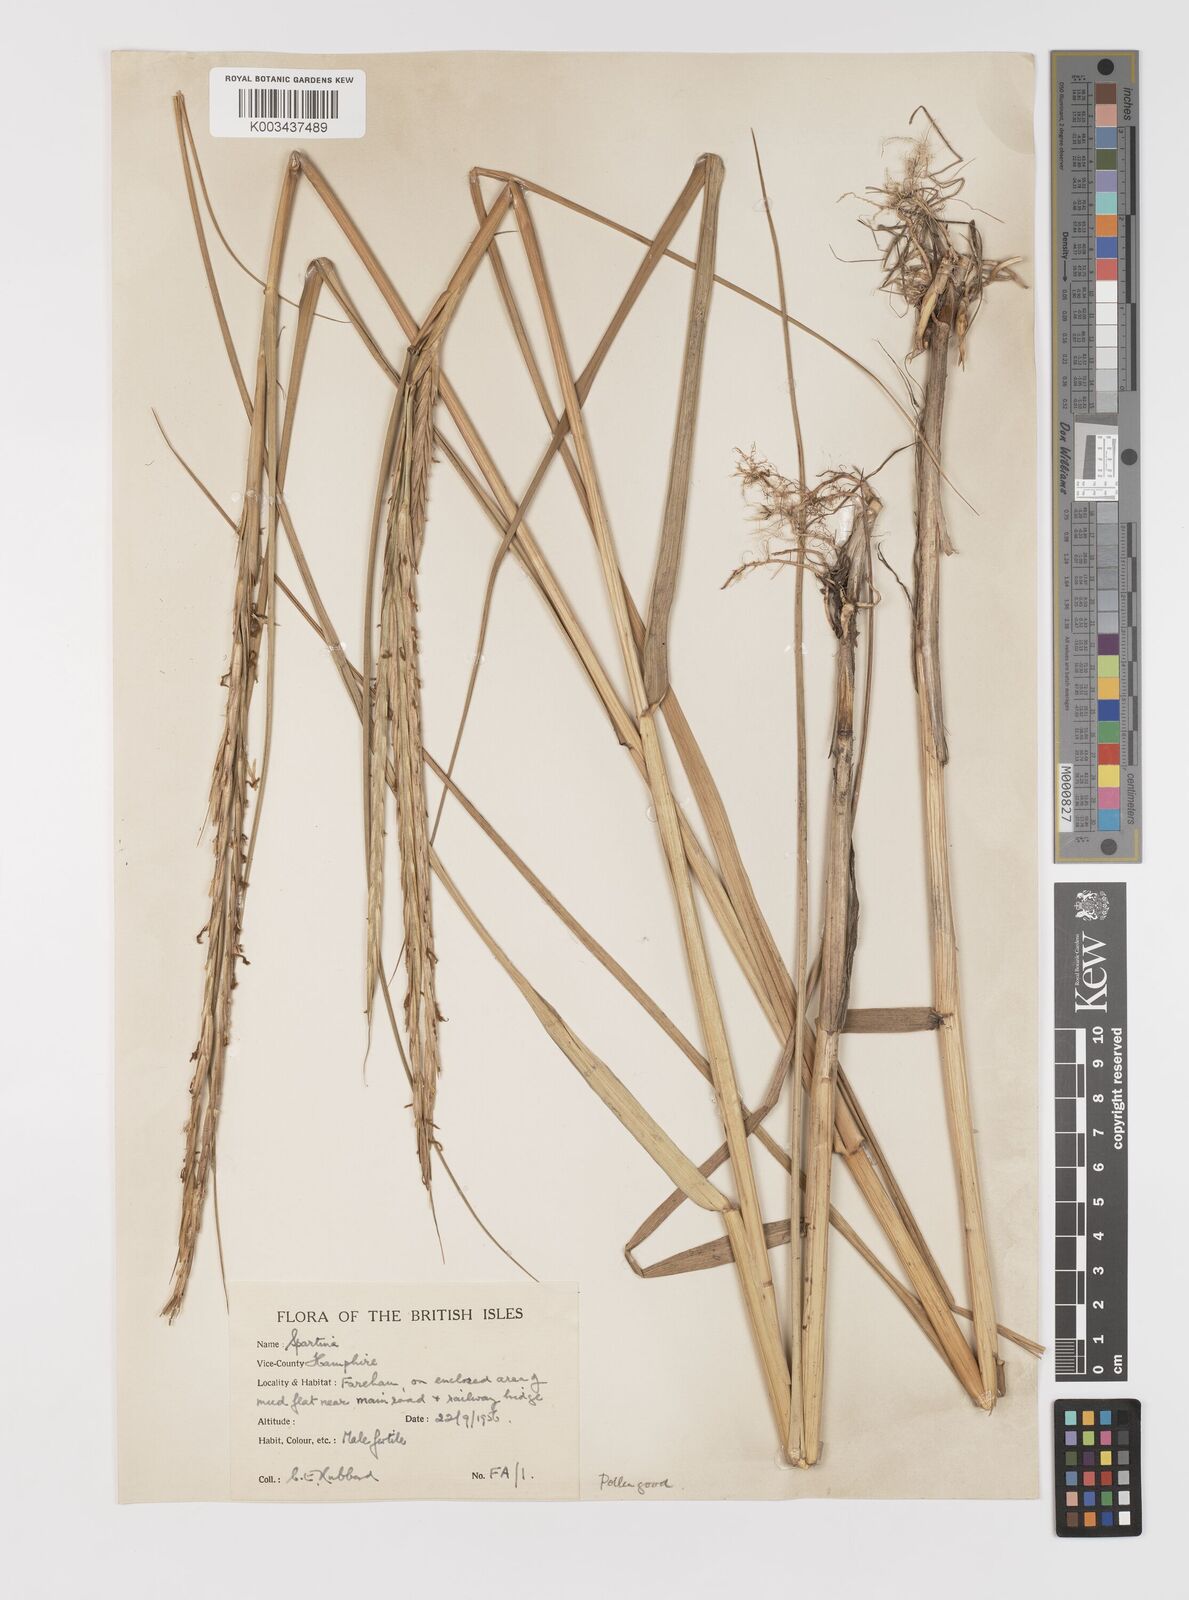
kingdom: Plantae
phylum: Tracheophyta
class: Liliopsida
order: Poales
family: Poaceae
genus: Sporobolus
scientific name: Sporobolus anglicus
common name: English cordgrass
